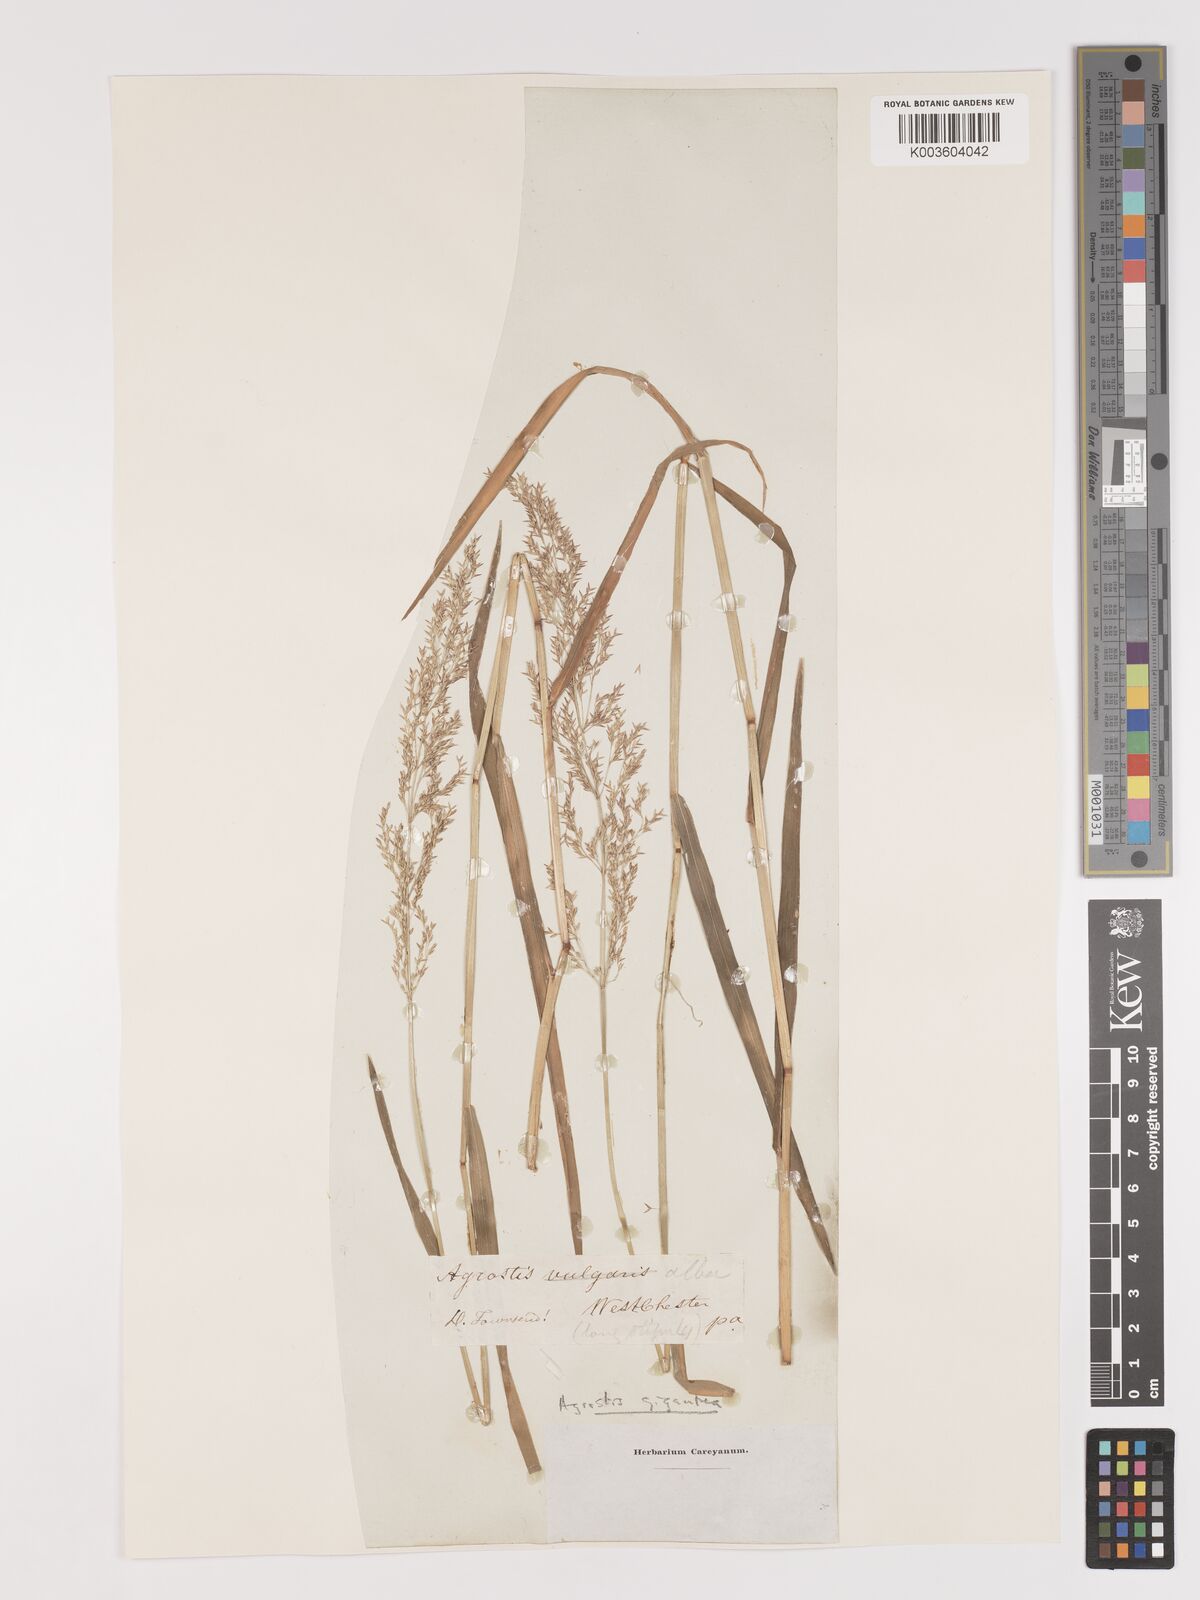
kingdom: Plantae
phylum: Tracheophyta
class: Liliopsida
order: Poales
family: Poaceae
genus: Agrostis
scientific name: Agrostis gigantea
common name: Black bent
